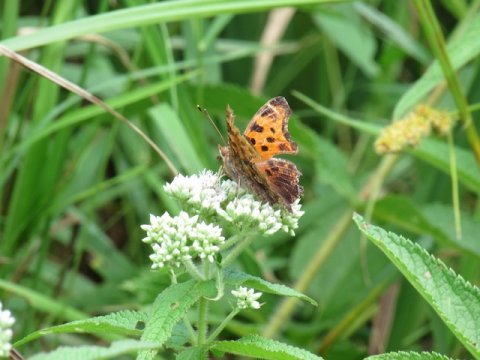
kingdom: Animalia
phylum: Arthropoda
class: Insecta
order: Lepidoptera
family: Nymphalidae
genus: Polygonia
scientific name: Polygonia comma
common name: Eastern Comma
